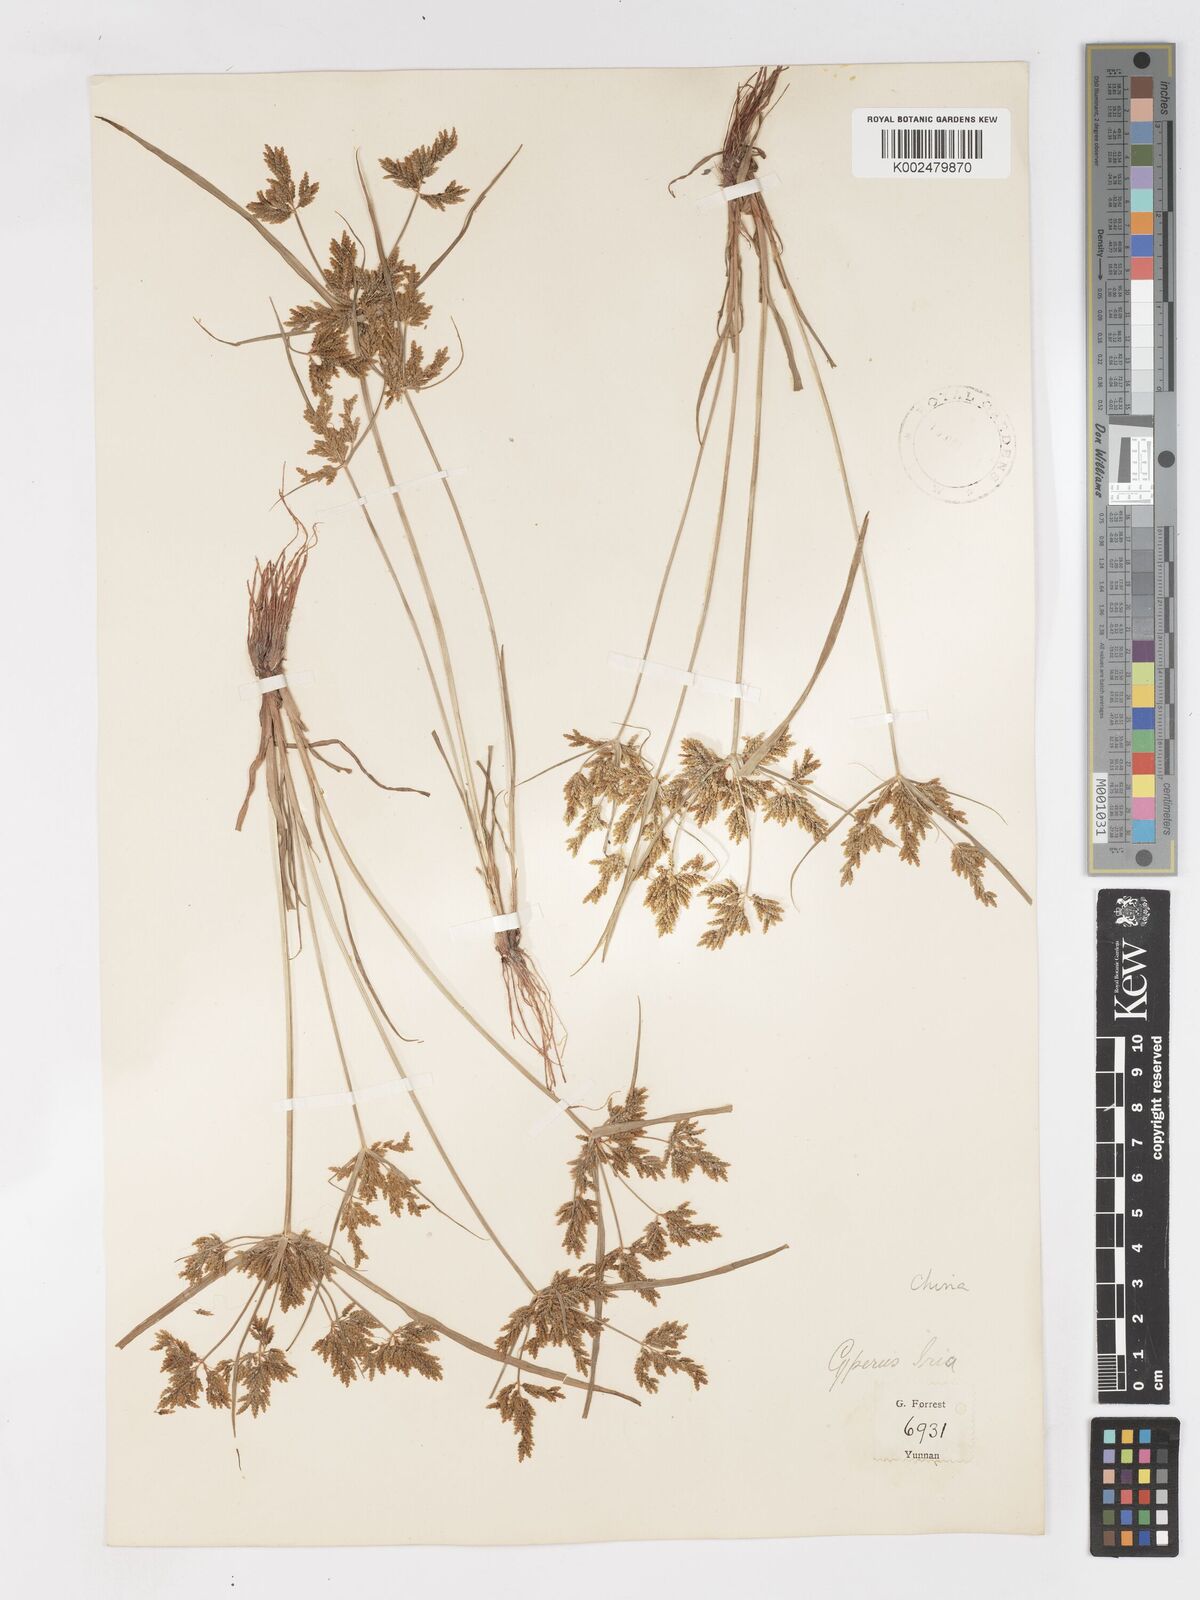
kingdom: Plantae
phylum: Tracheophyta
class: Liliopsida
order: Poales
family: Cyperaceae
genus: Cyperus
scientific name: Cyperus iria
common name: Ricefield flatsedge
